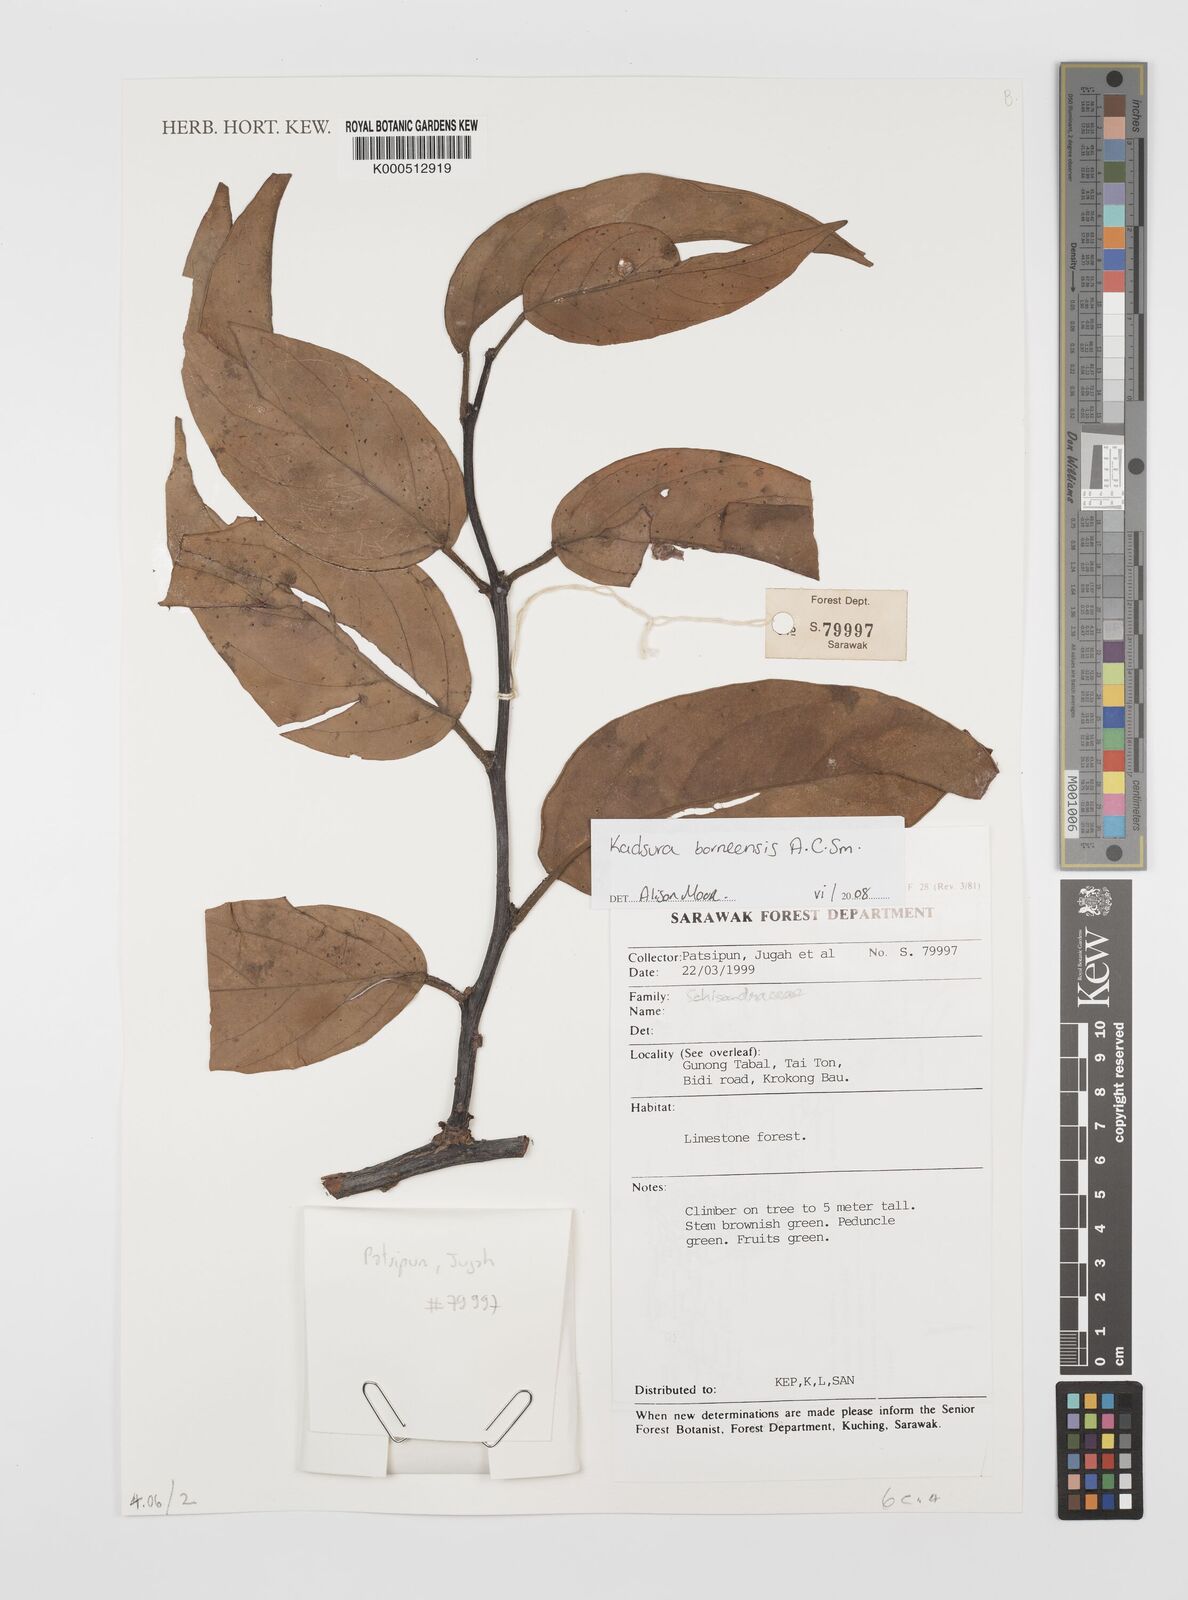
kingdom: Plantae
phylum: Tracheophyta
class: Magnoliopsida
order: Austrobaileyales
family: Schisandraceae
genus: Kadsura
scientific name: Kadsura borneensis
